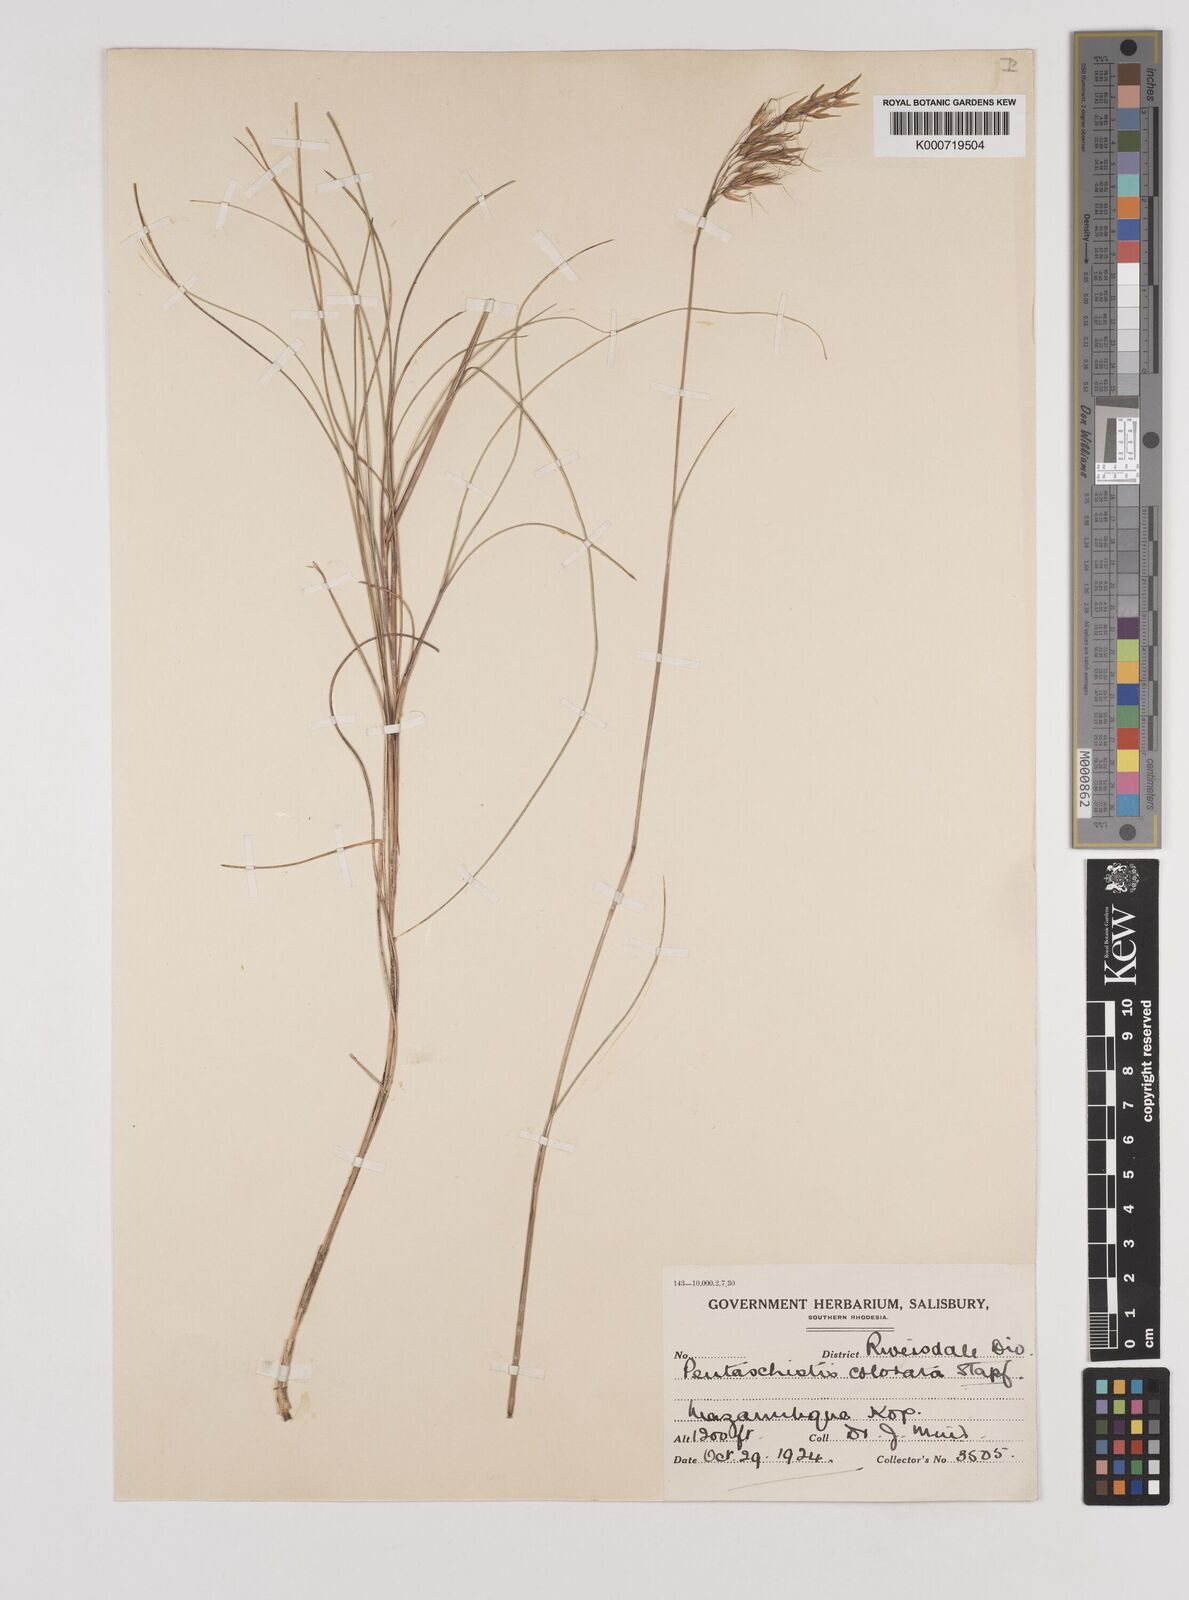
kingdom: Plantae
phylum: Tracheophyta
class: Liliopsida
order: Poales
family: Poaceae
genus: Pentameris
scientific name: Pentameris colorata
